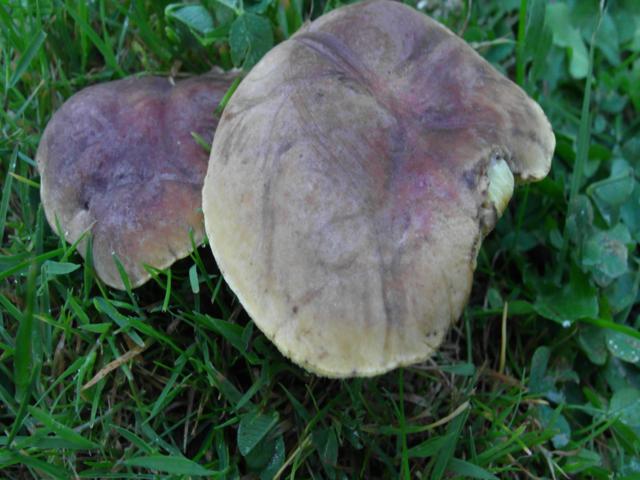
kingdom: Fungi
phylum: Basidiomycota
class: Agaricomycetes
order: Boletales
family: Boletaceae
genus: Hortiboletus
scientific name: Hortiboletus bubalinus
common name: aurora-rørhat
